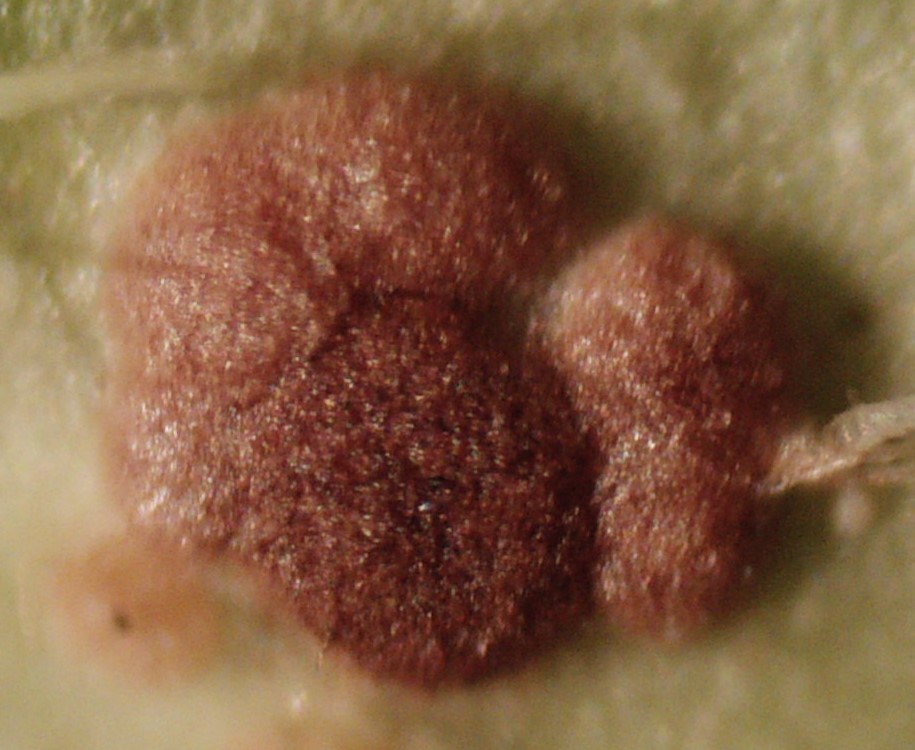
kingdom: Fungi
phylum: Basidiomycota
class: Pucciniomycetes
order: Pucciniales
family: Pucciniaceae
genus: Puccinia
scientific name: Puccinia veronicae
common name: Wood speedwell rust
